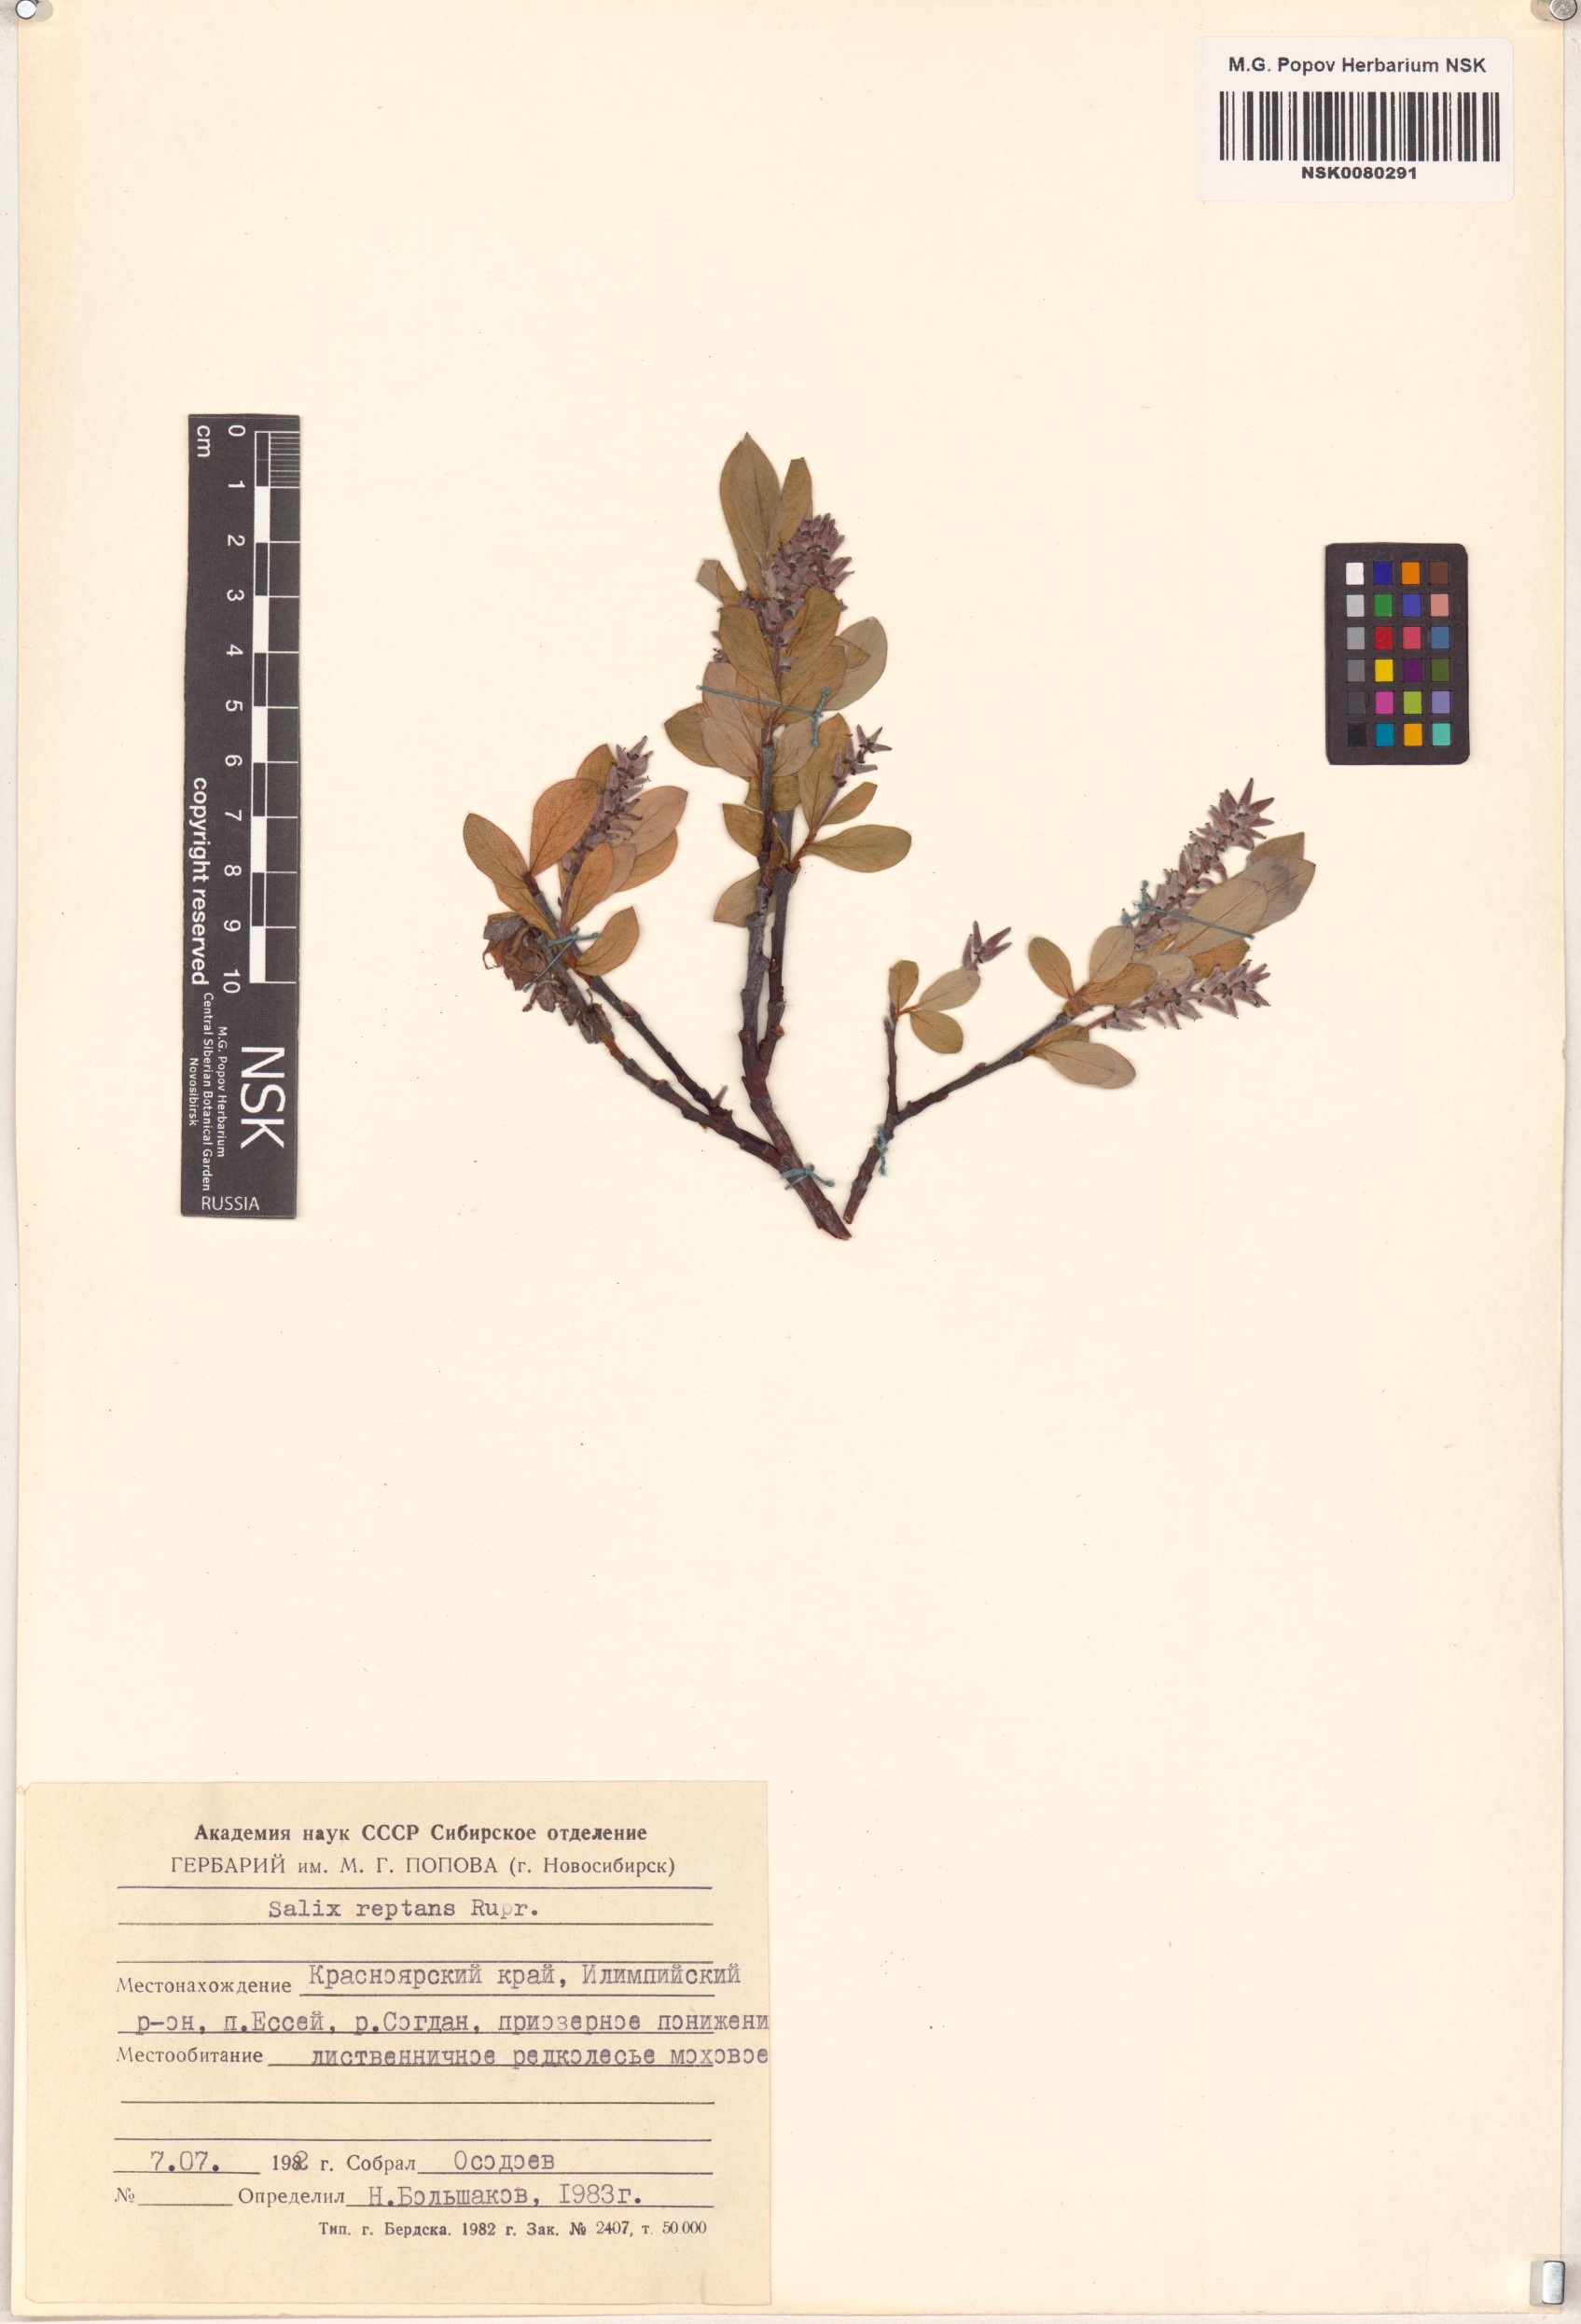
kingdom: Plantae
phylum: Tracheophyta
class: Magnoliopsida
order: Malpighiales
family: Salicaceae
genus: Salix
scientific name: Salix reptans
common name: Arctic creeping willow
